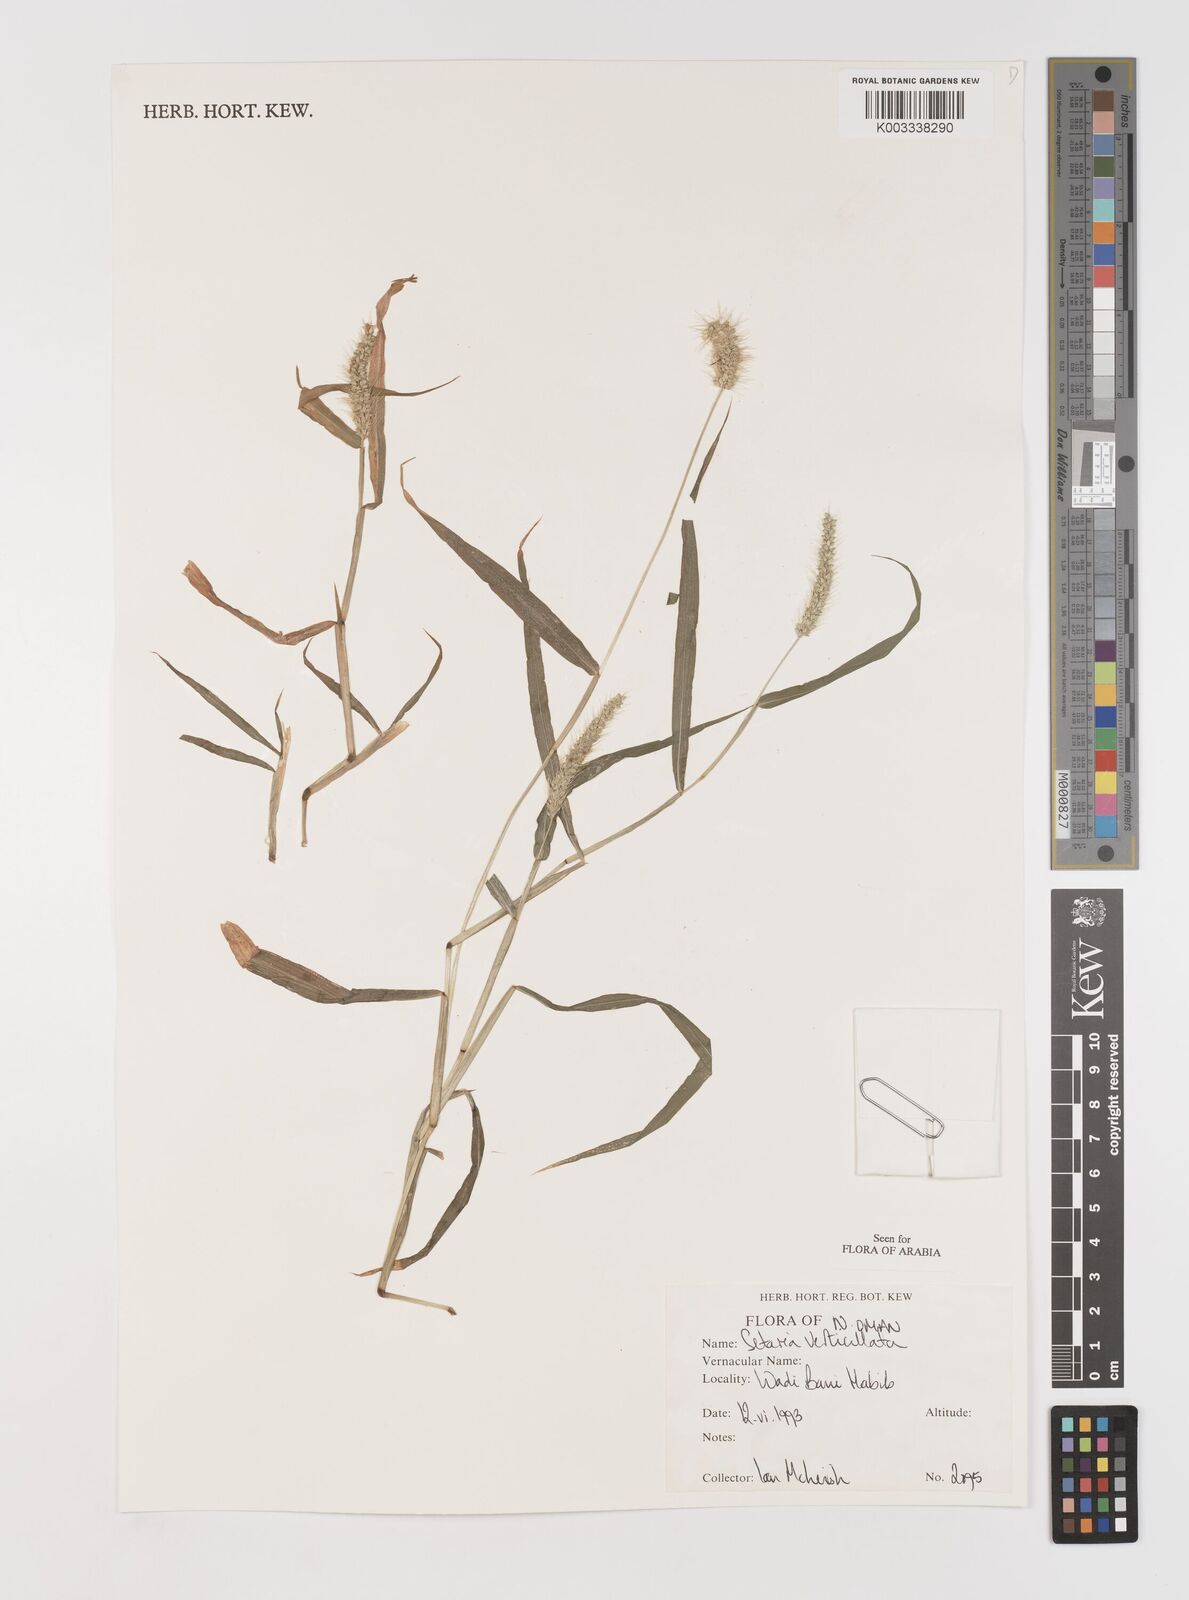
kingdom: Plantae
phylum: Tracheophyta
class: Liliopsida
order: Poales
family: Poaceae
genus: Setaria
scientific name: Setaria verticillata
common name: Hooked bristlegrass
